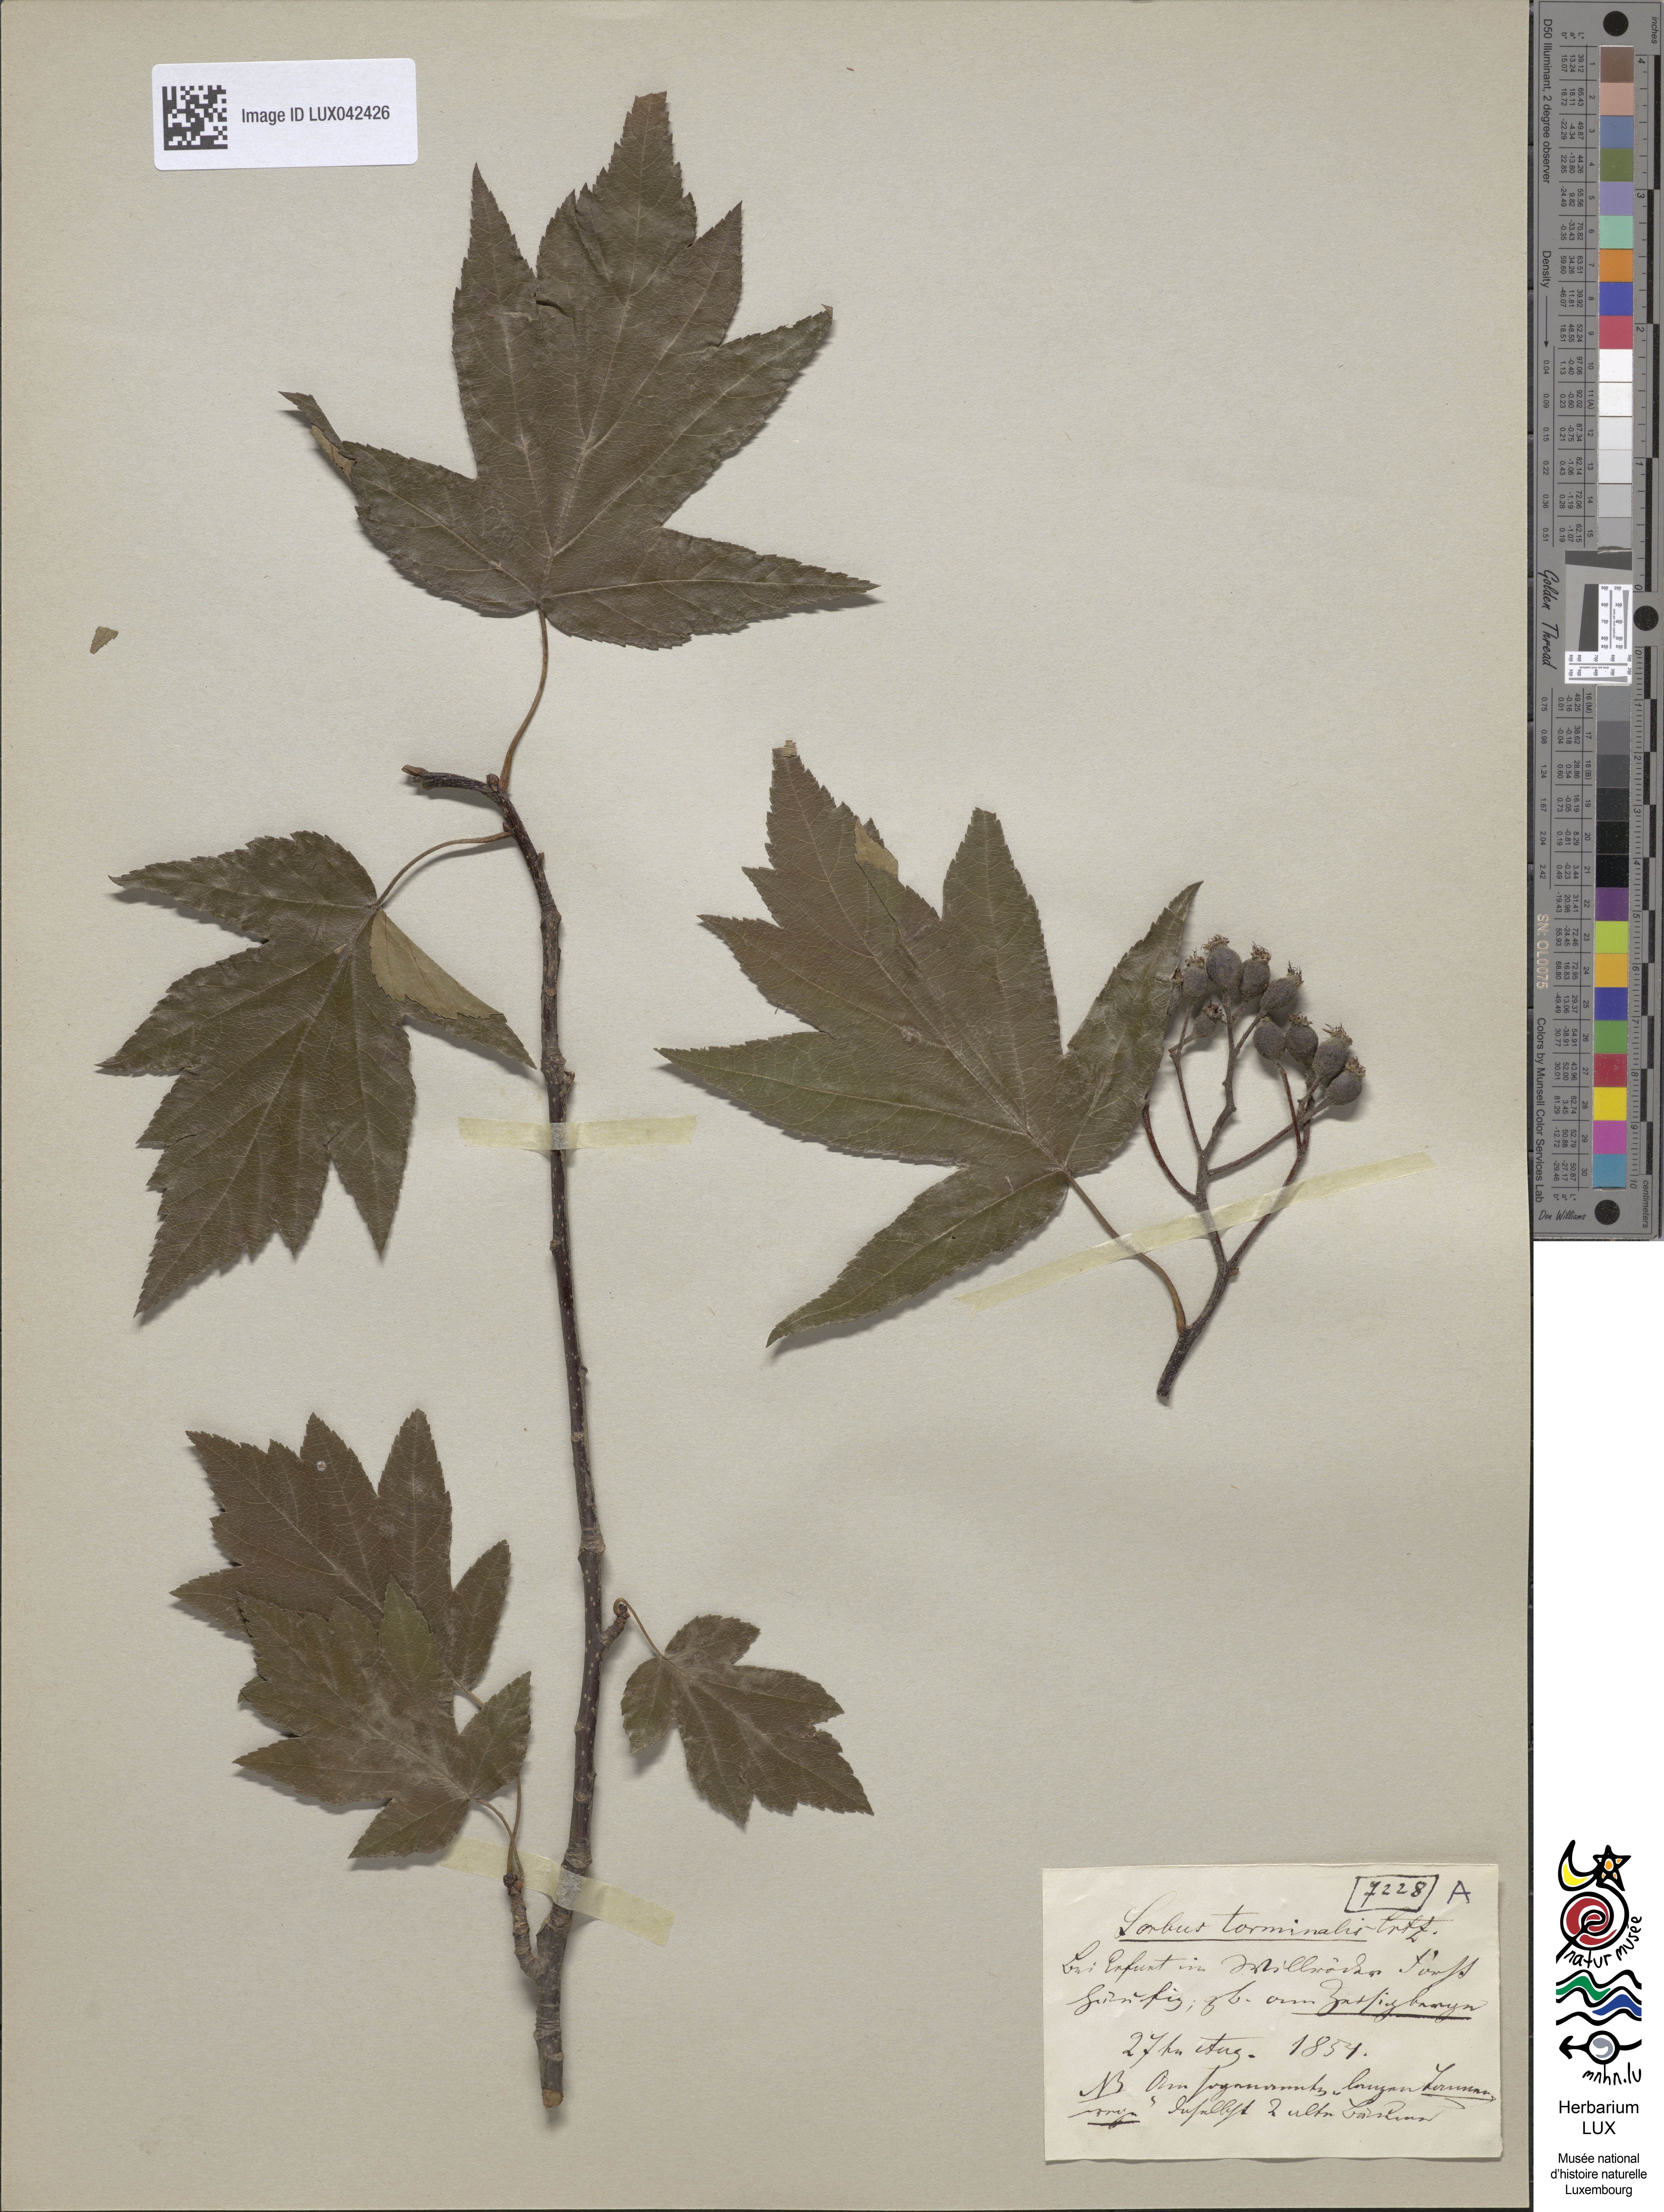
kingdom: Plantae
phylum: Tracheophyta
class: Magnoliopsida
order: Rosales
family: Rosaceae
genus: Torminalis
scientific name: Torminalis glaberrima
